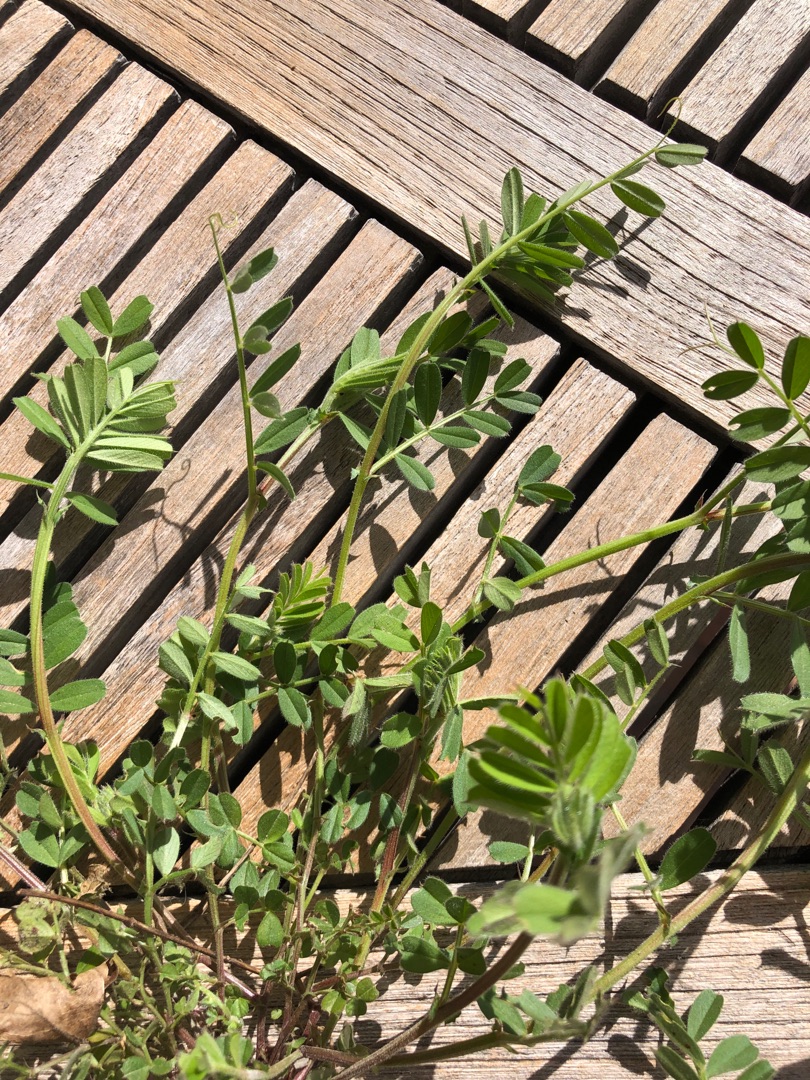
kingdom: Plantae
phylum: Tracheophyta
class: Magnoliopsida
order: Fabales
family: Fabaceae
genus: Vicia
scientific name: Vicia sativa
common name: Foder-vikke
